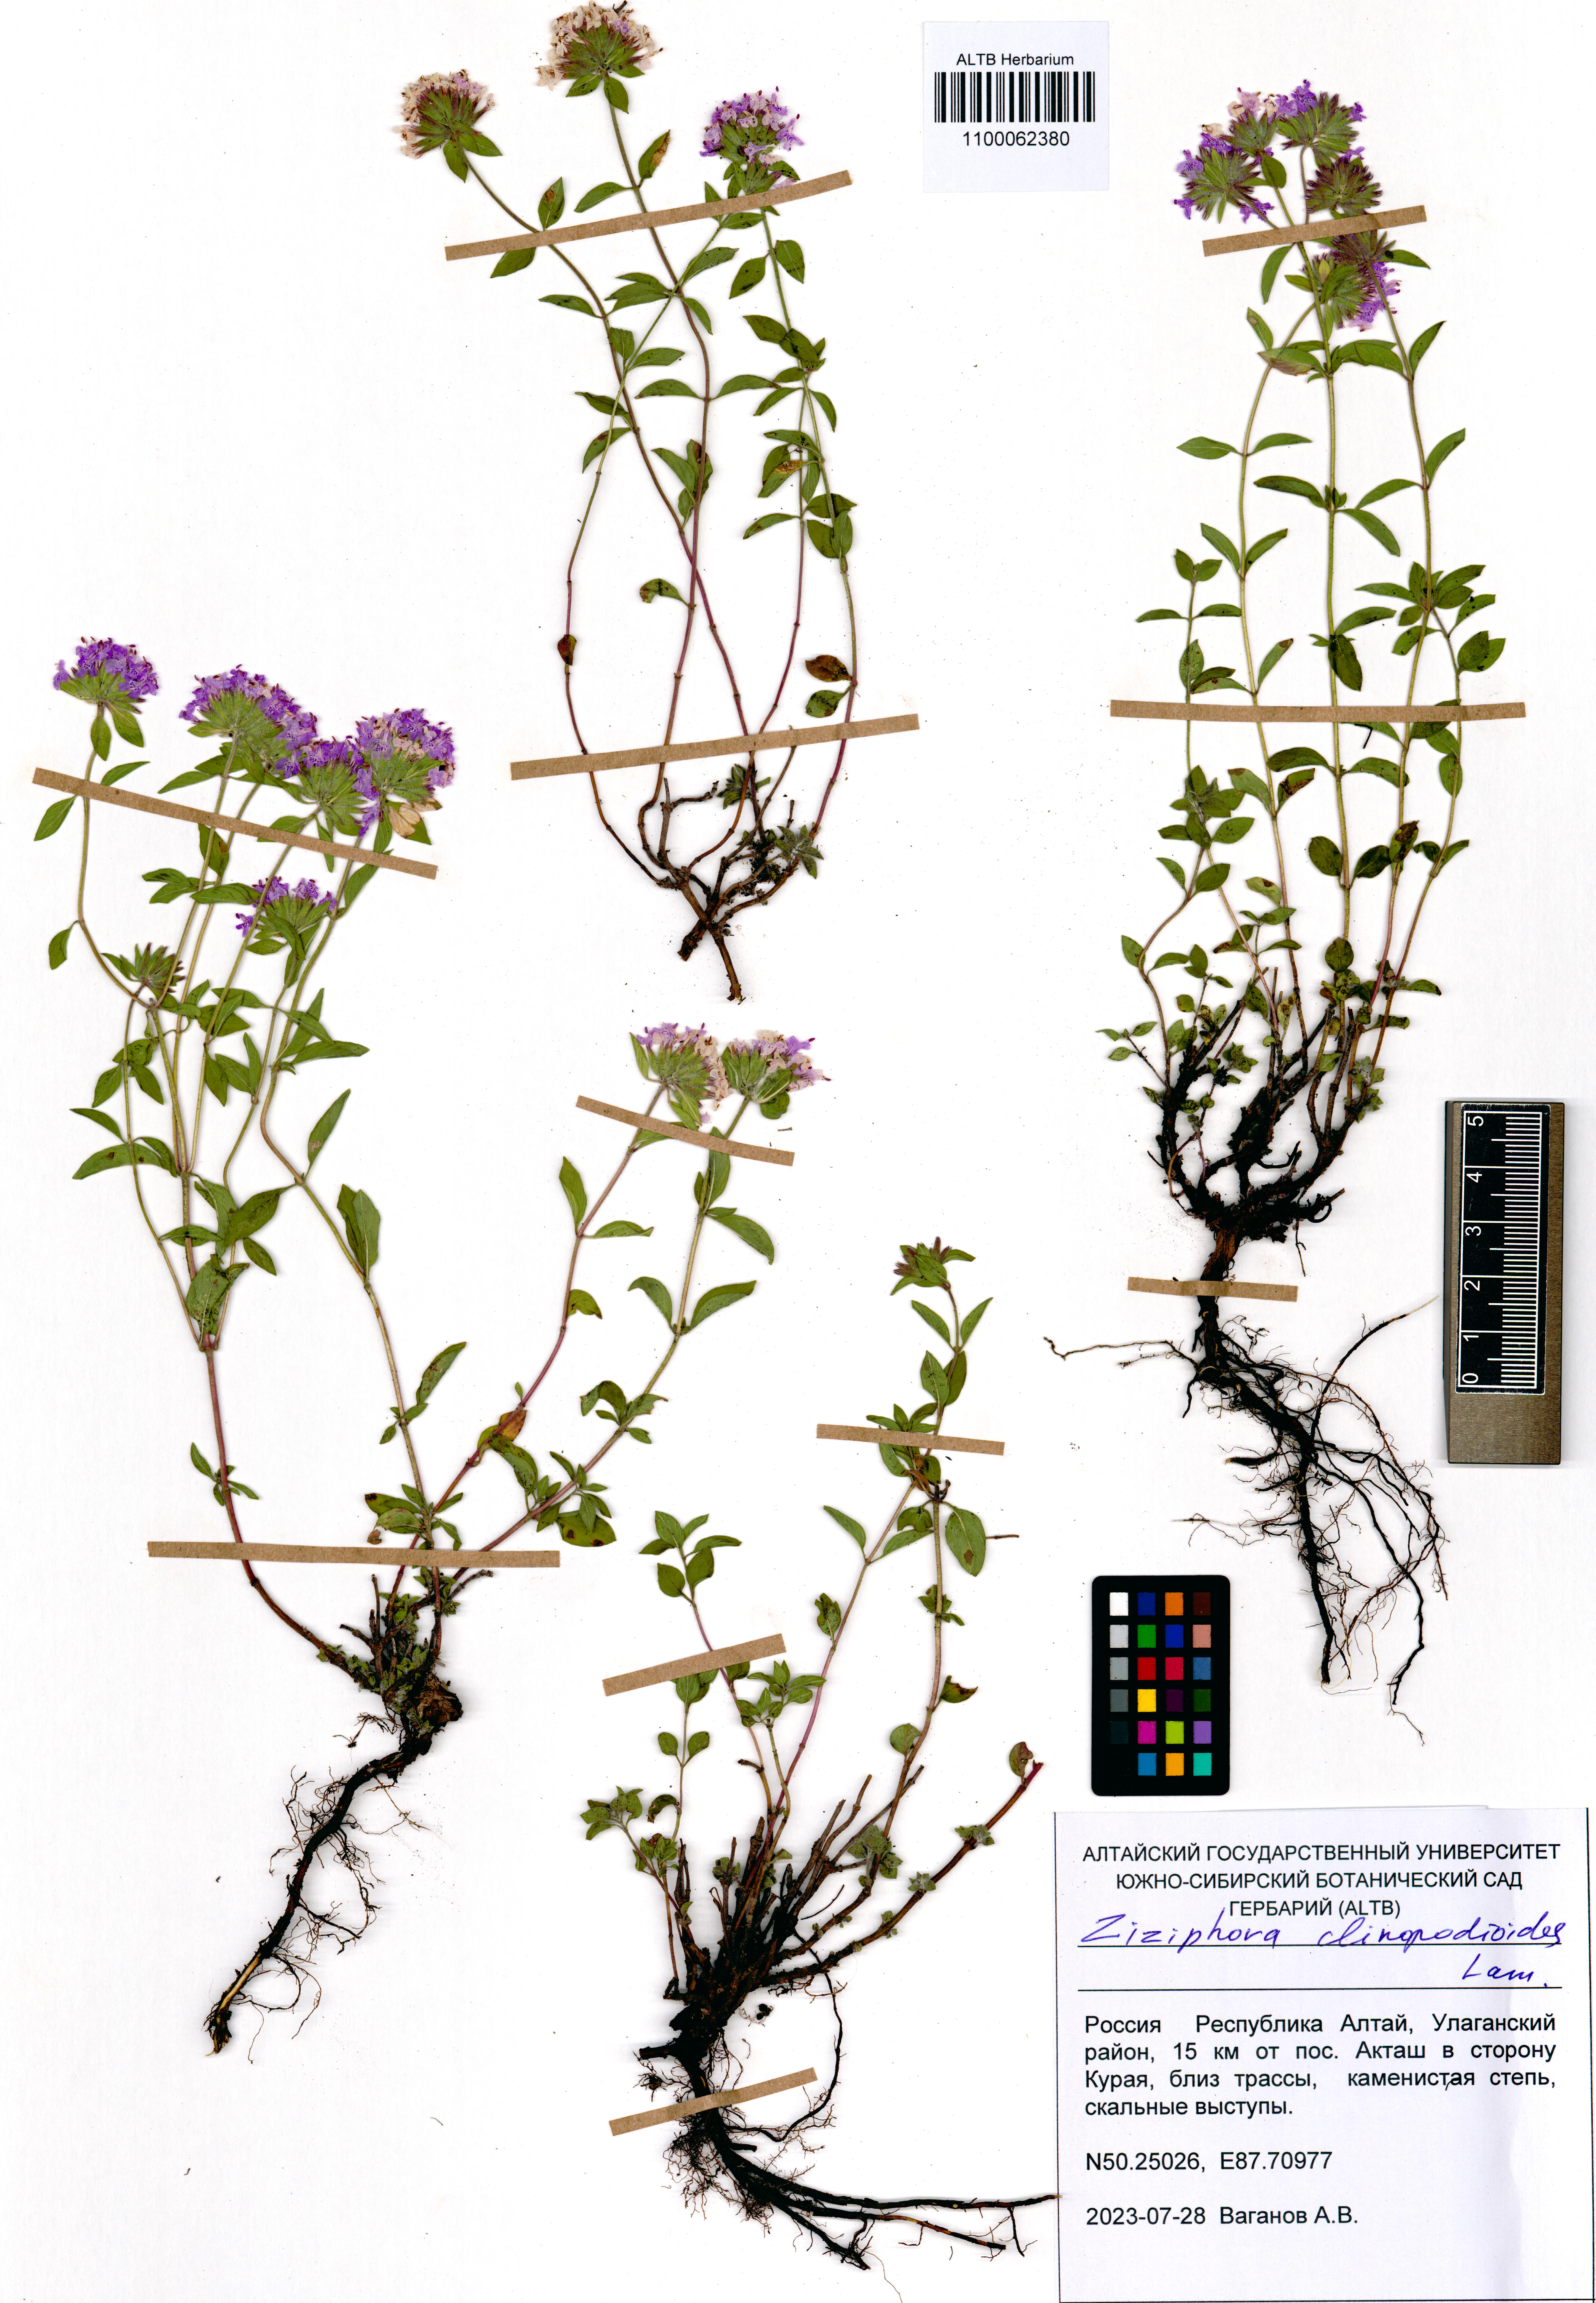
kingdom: Plantae
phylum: Tracheophyta
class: Magnoliopsida
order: Lamiales
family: Lamiaceae
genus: Ziziphora
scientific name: Ziziphora clinopodioides
